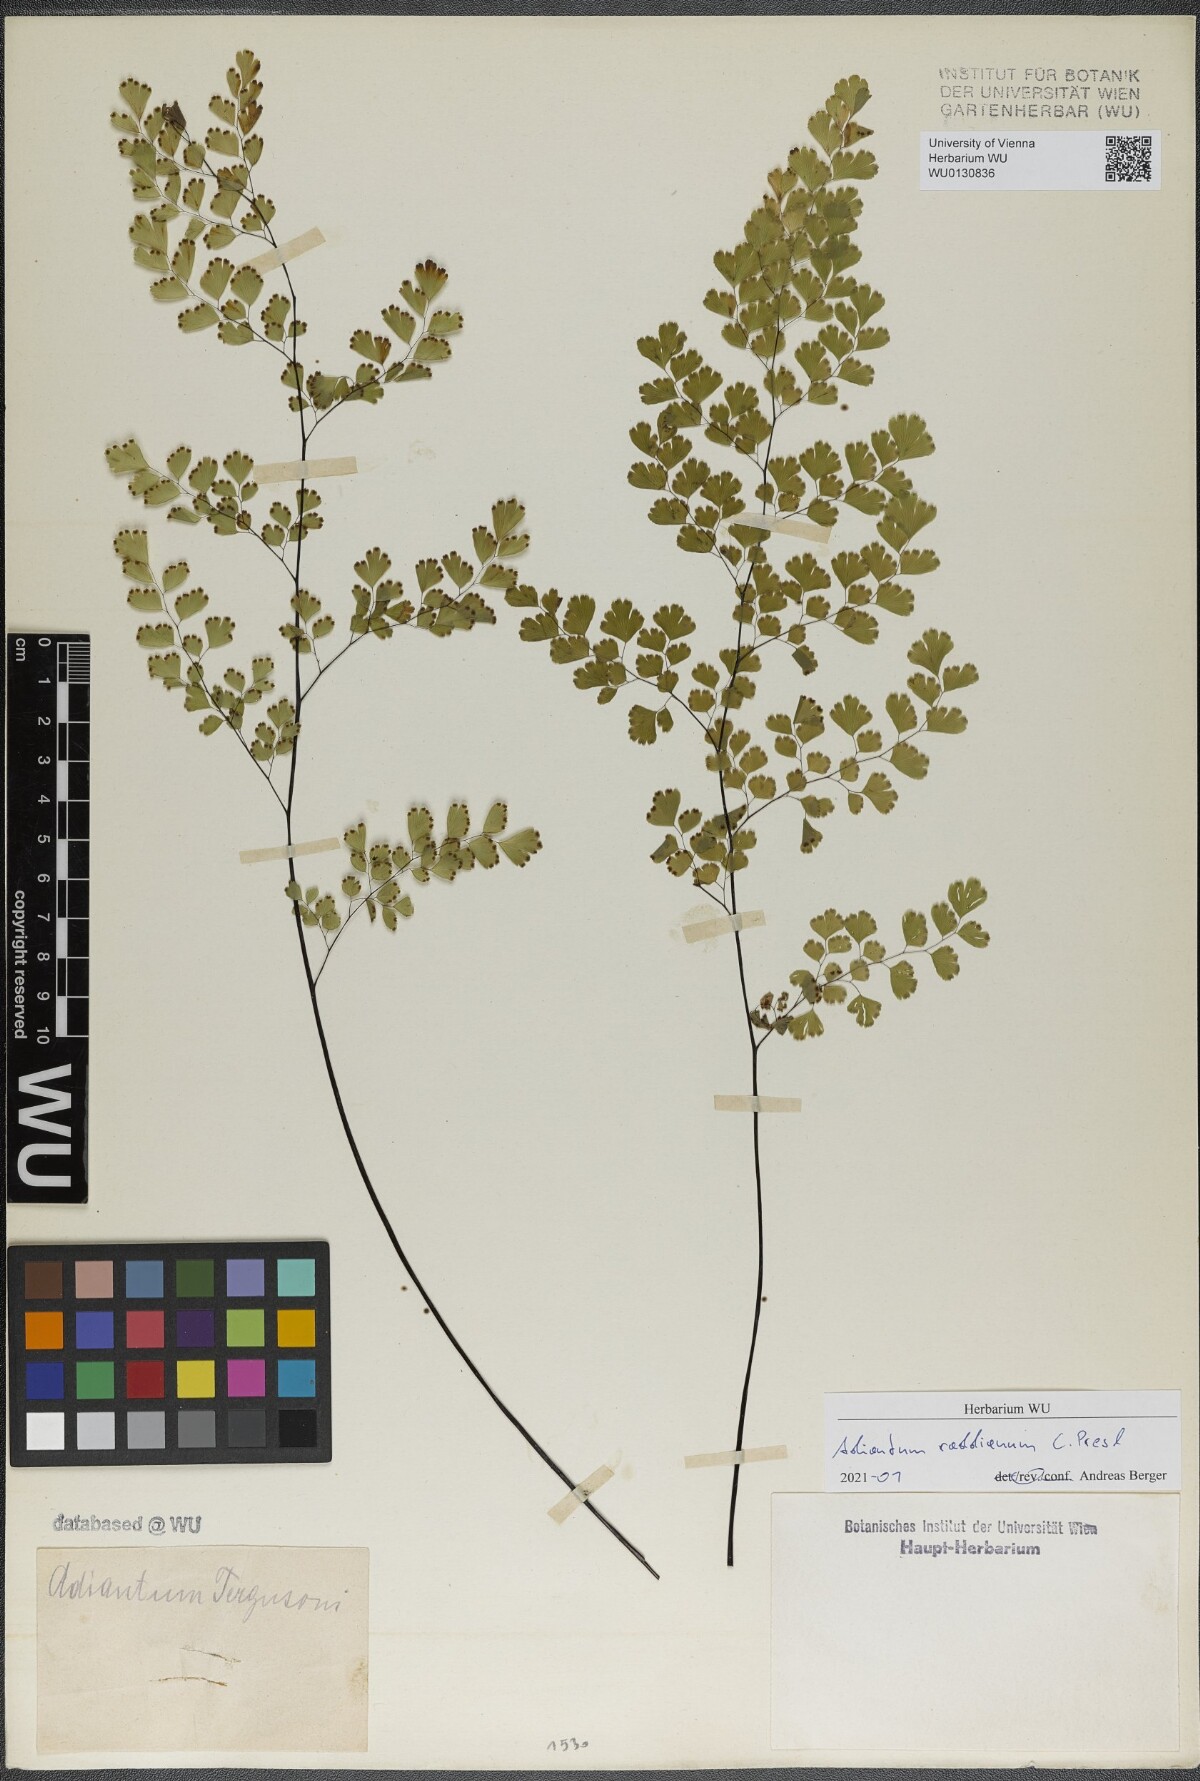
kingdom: Plantae
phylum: Tracheophyta
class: Polypodiopsida
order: Polypodiales
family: Pteridaceae
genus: Adiantum
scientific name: Adiantum raddianum
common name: Delta maidenhair fern
